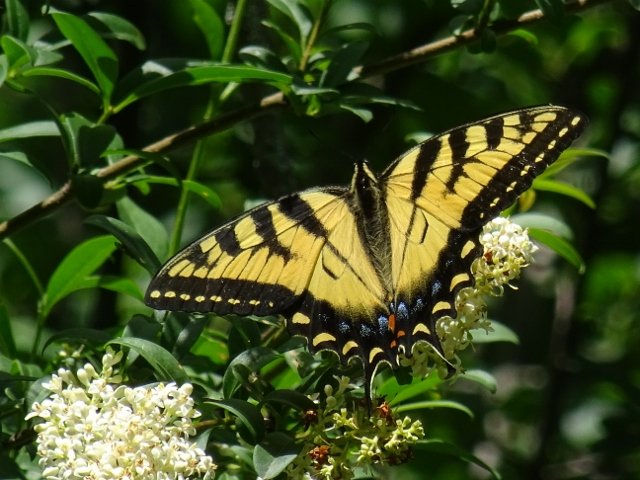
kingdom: Animalia
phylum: Arthropoda
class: Insecta
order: Lepidoptera
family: Papilionidae
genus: Pterourus
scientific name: Pterourus glaucus
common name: Eastern Tiger Swallowtail
